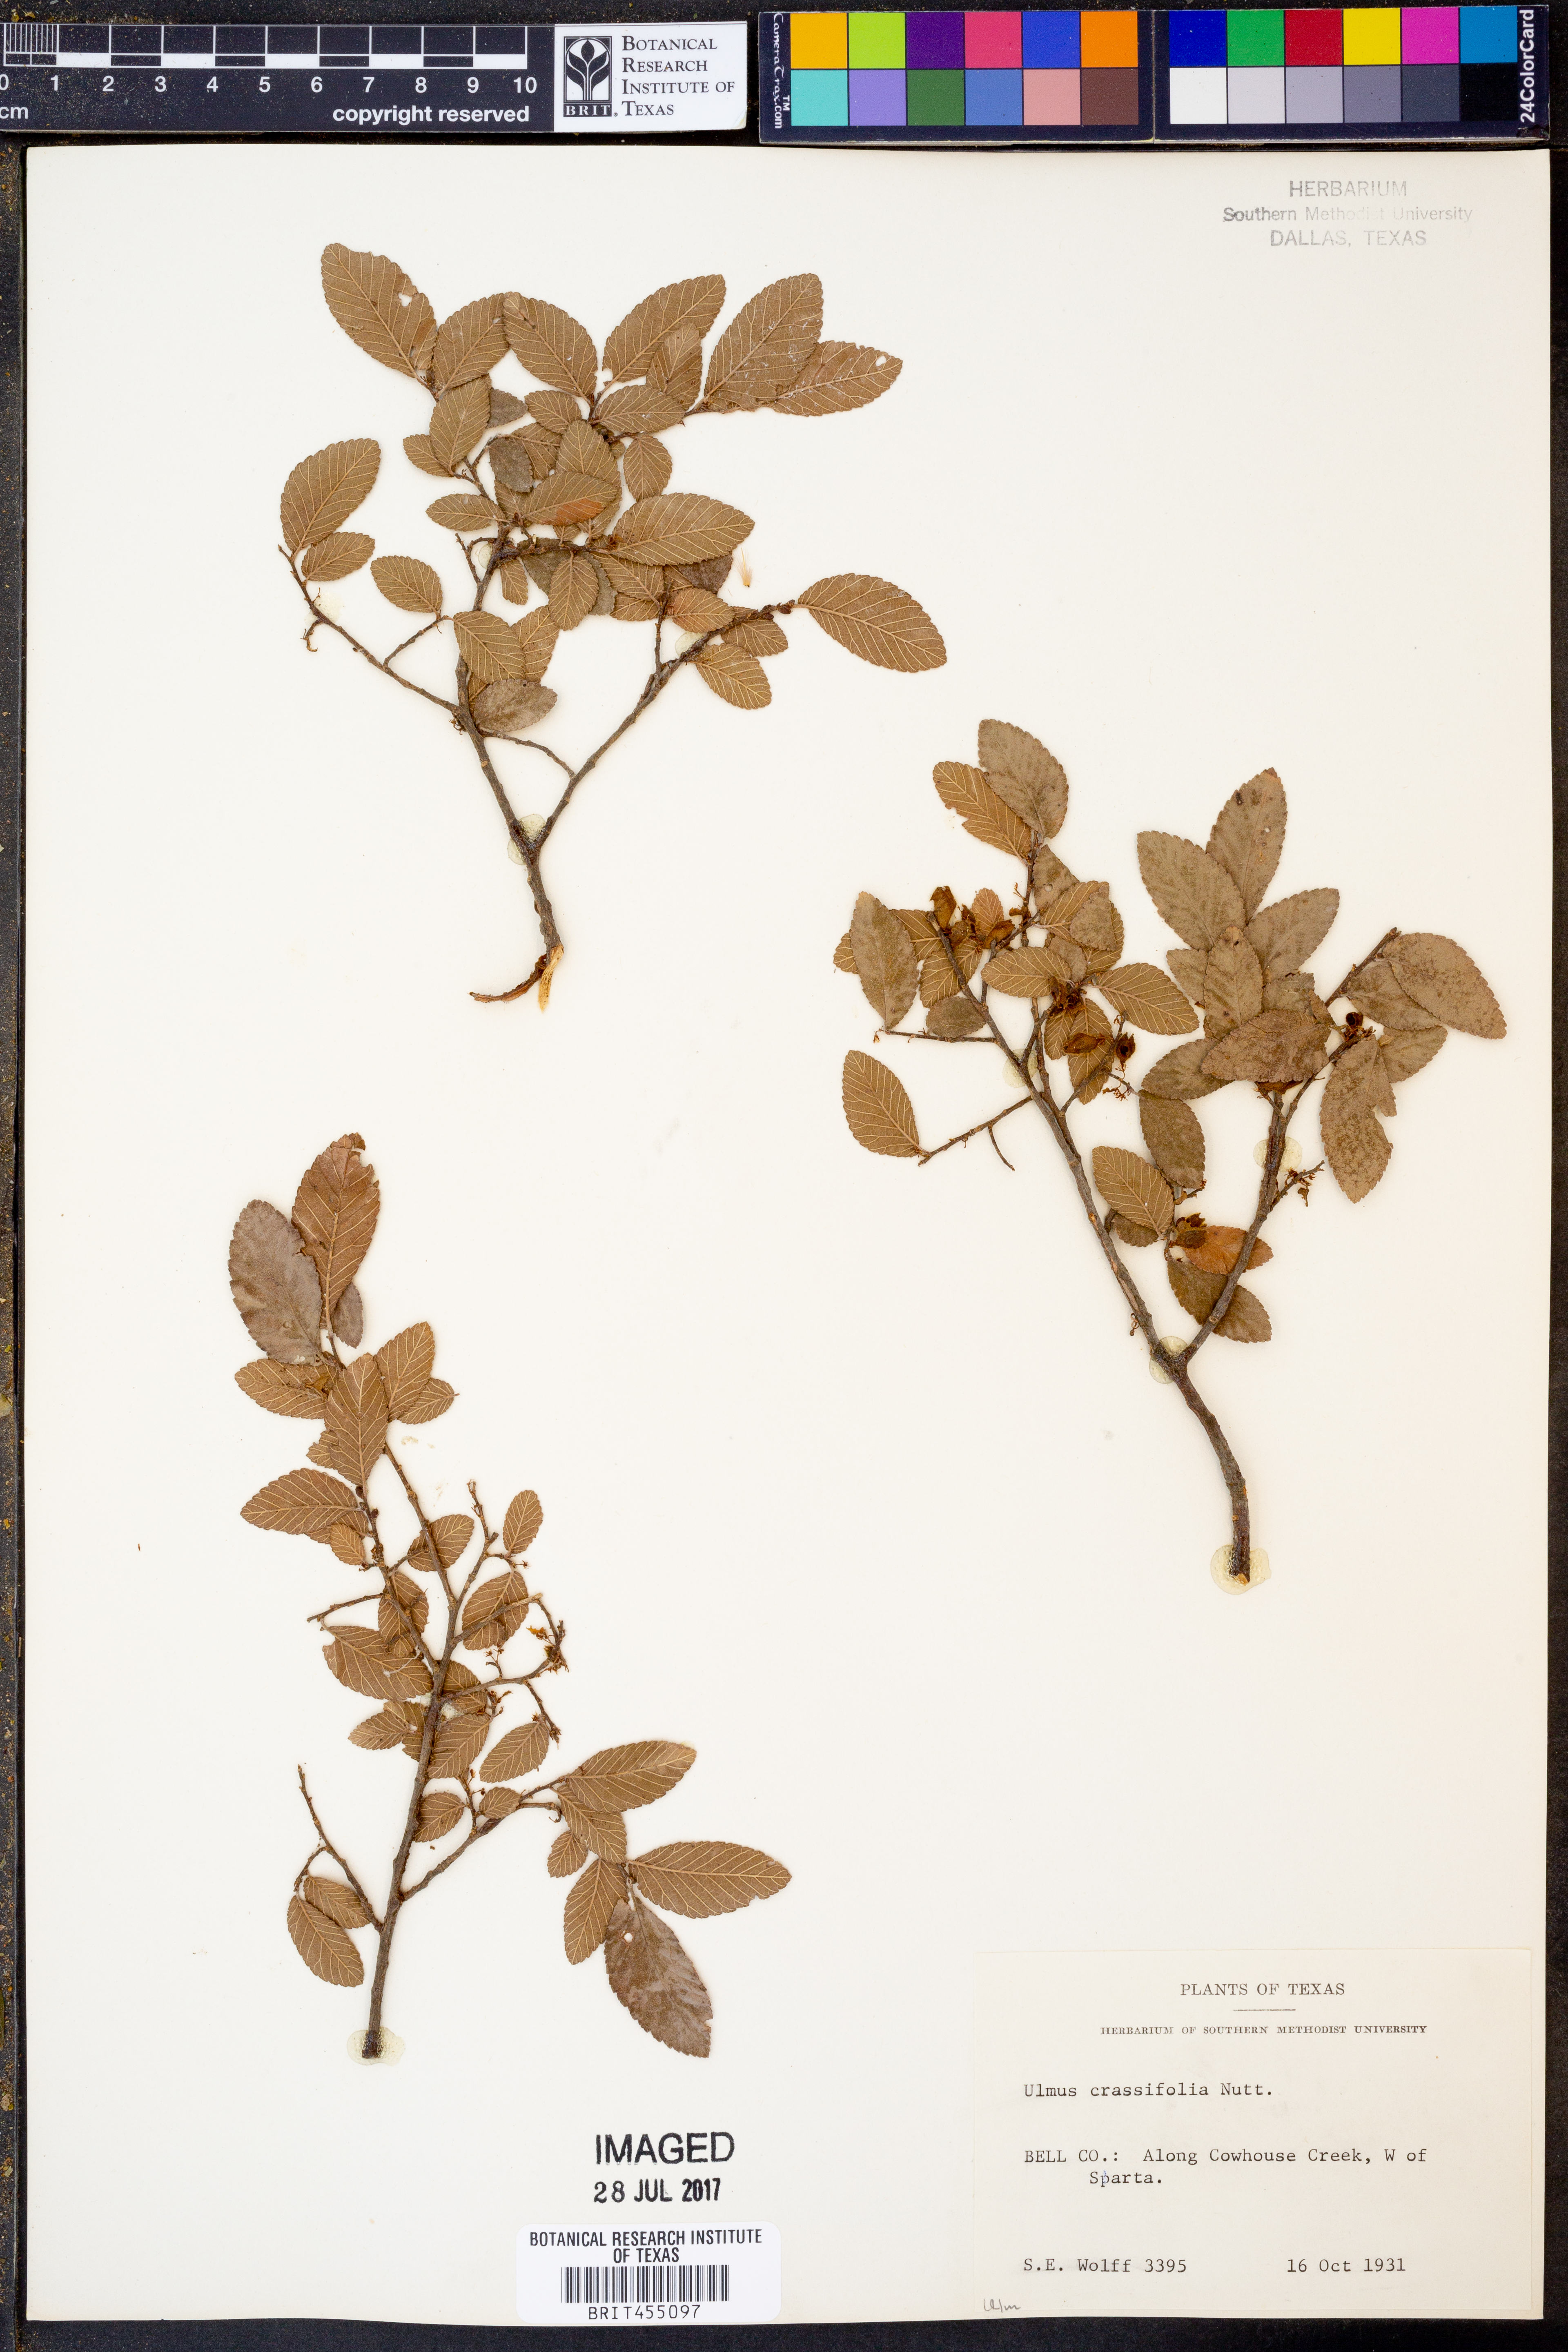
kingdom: Plantae
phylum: Tracheophyta
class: Magnoliopsida
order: Rosales
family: Ulmaceae
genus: Ulmus
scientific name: Ulmus crassifolia
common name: Basket elm
